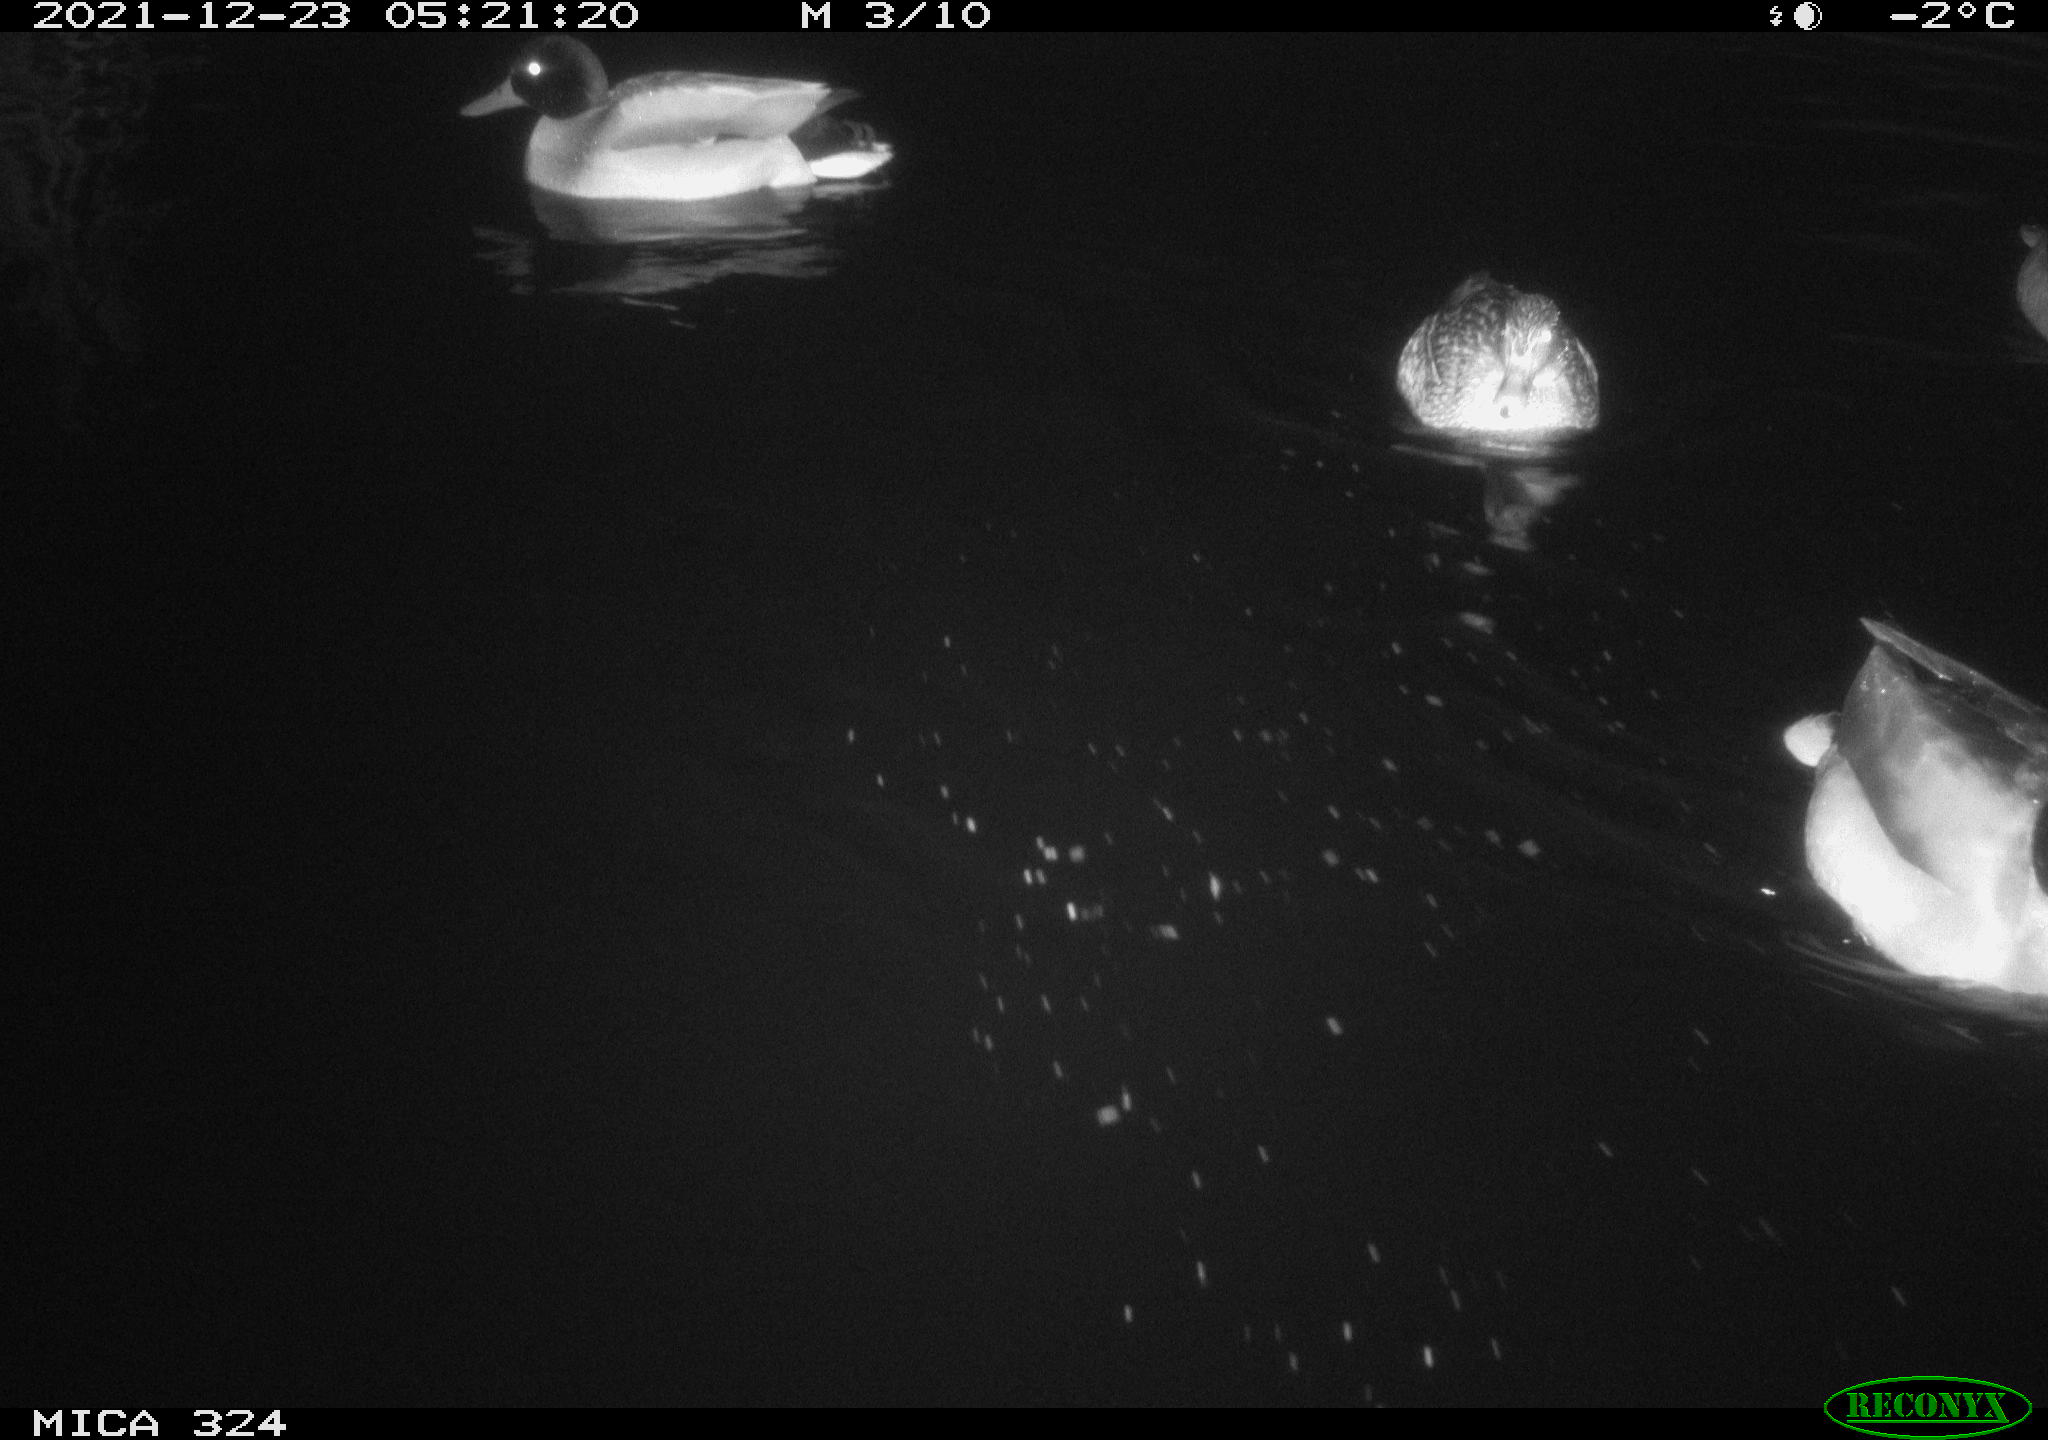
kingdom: Animalia
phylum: Chordata
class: Aves
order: Anseriformes
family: Anatidae
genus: Anas
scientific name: Anas platyrhynchos
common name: Mallard
